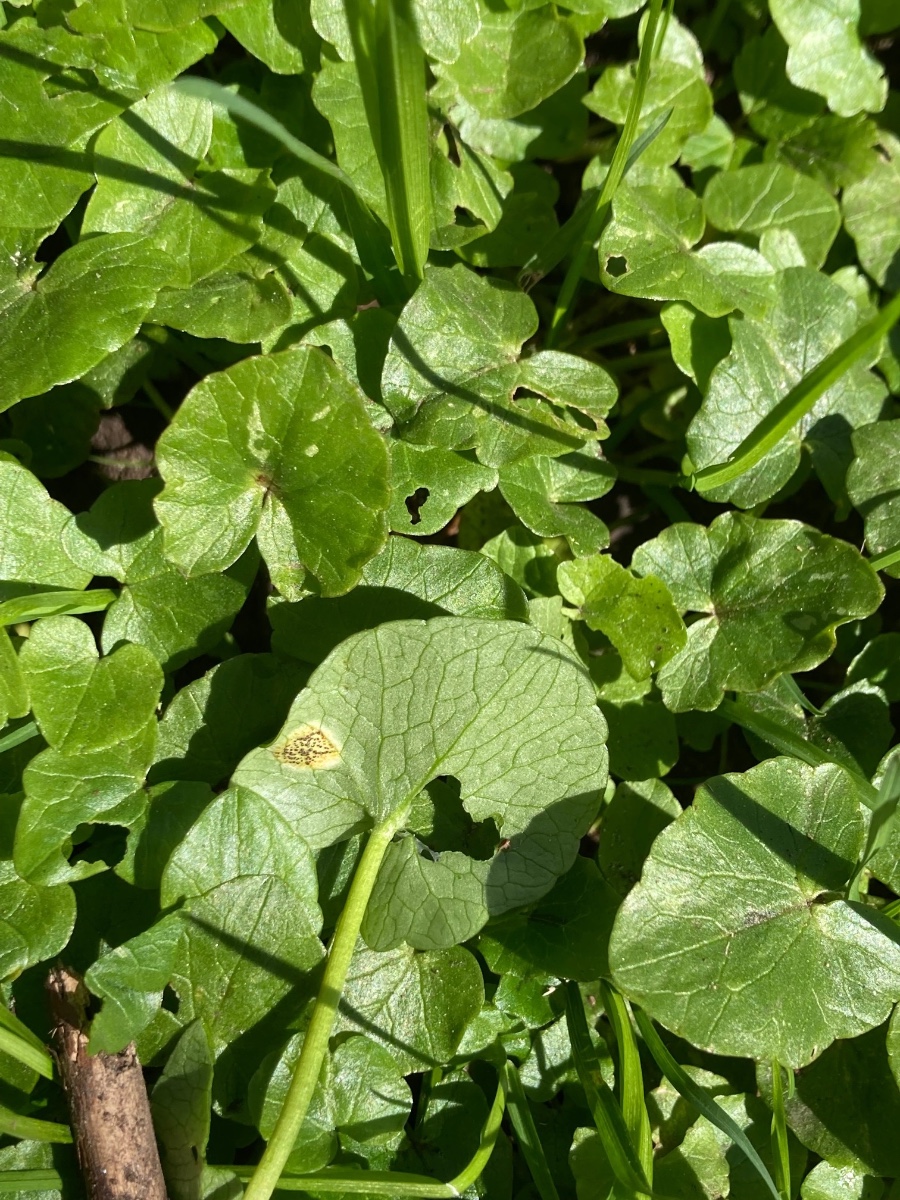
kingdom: Fungi
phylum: Basidiomycota
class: Pucciniomycetes
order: Pucciniales
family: Pucciniaceae
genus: Uromyces
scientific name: Uromyces ficariae
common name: vorterod-encellerust
